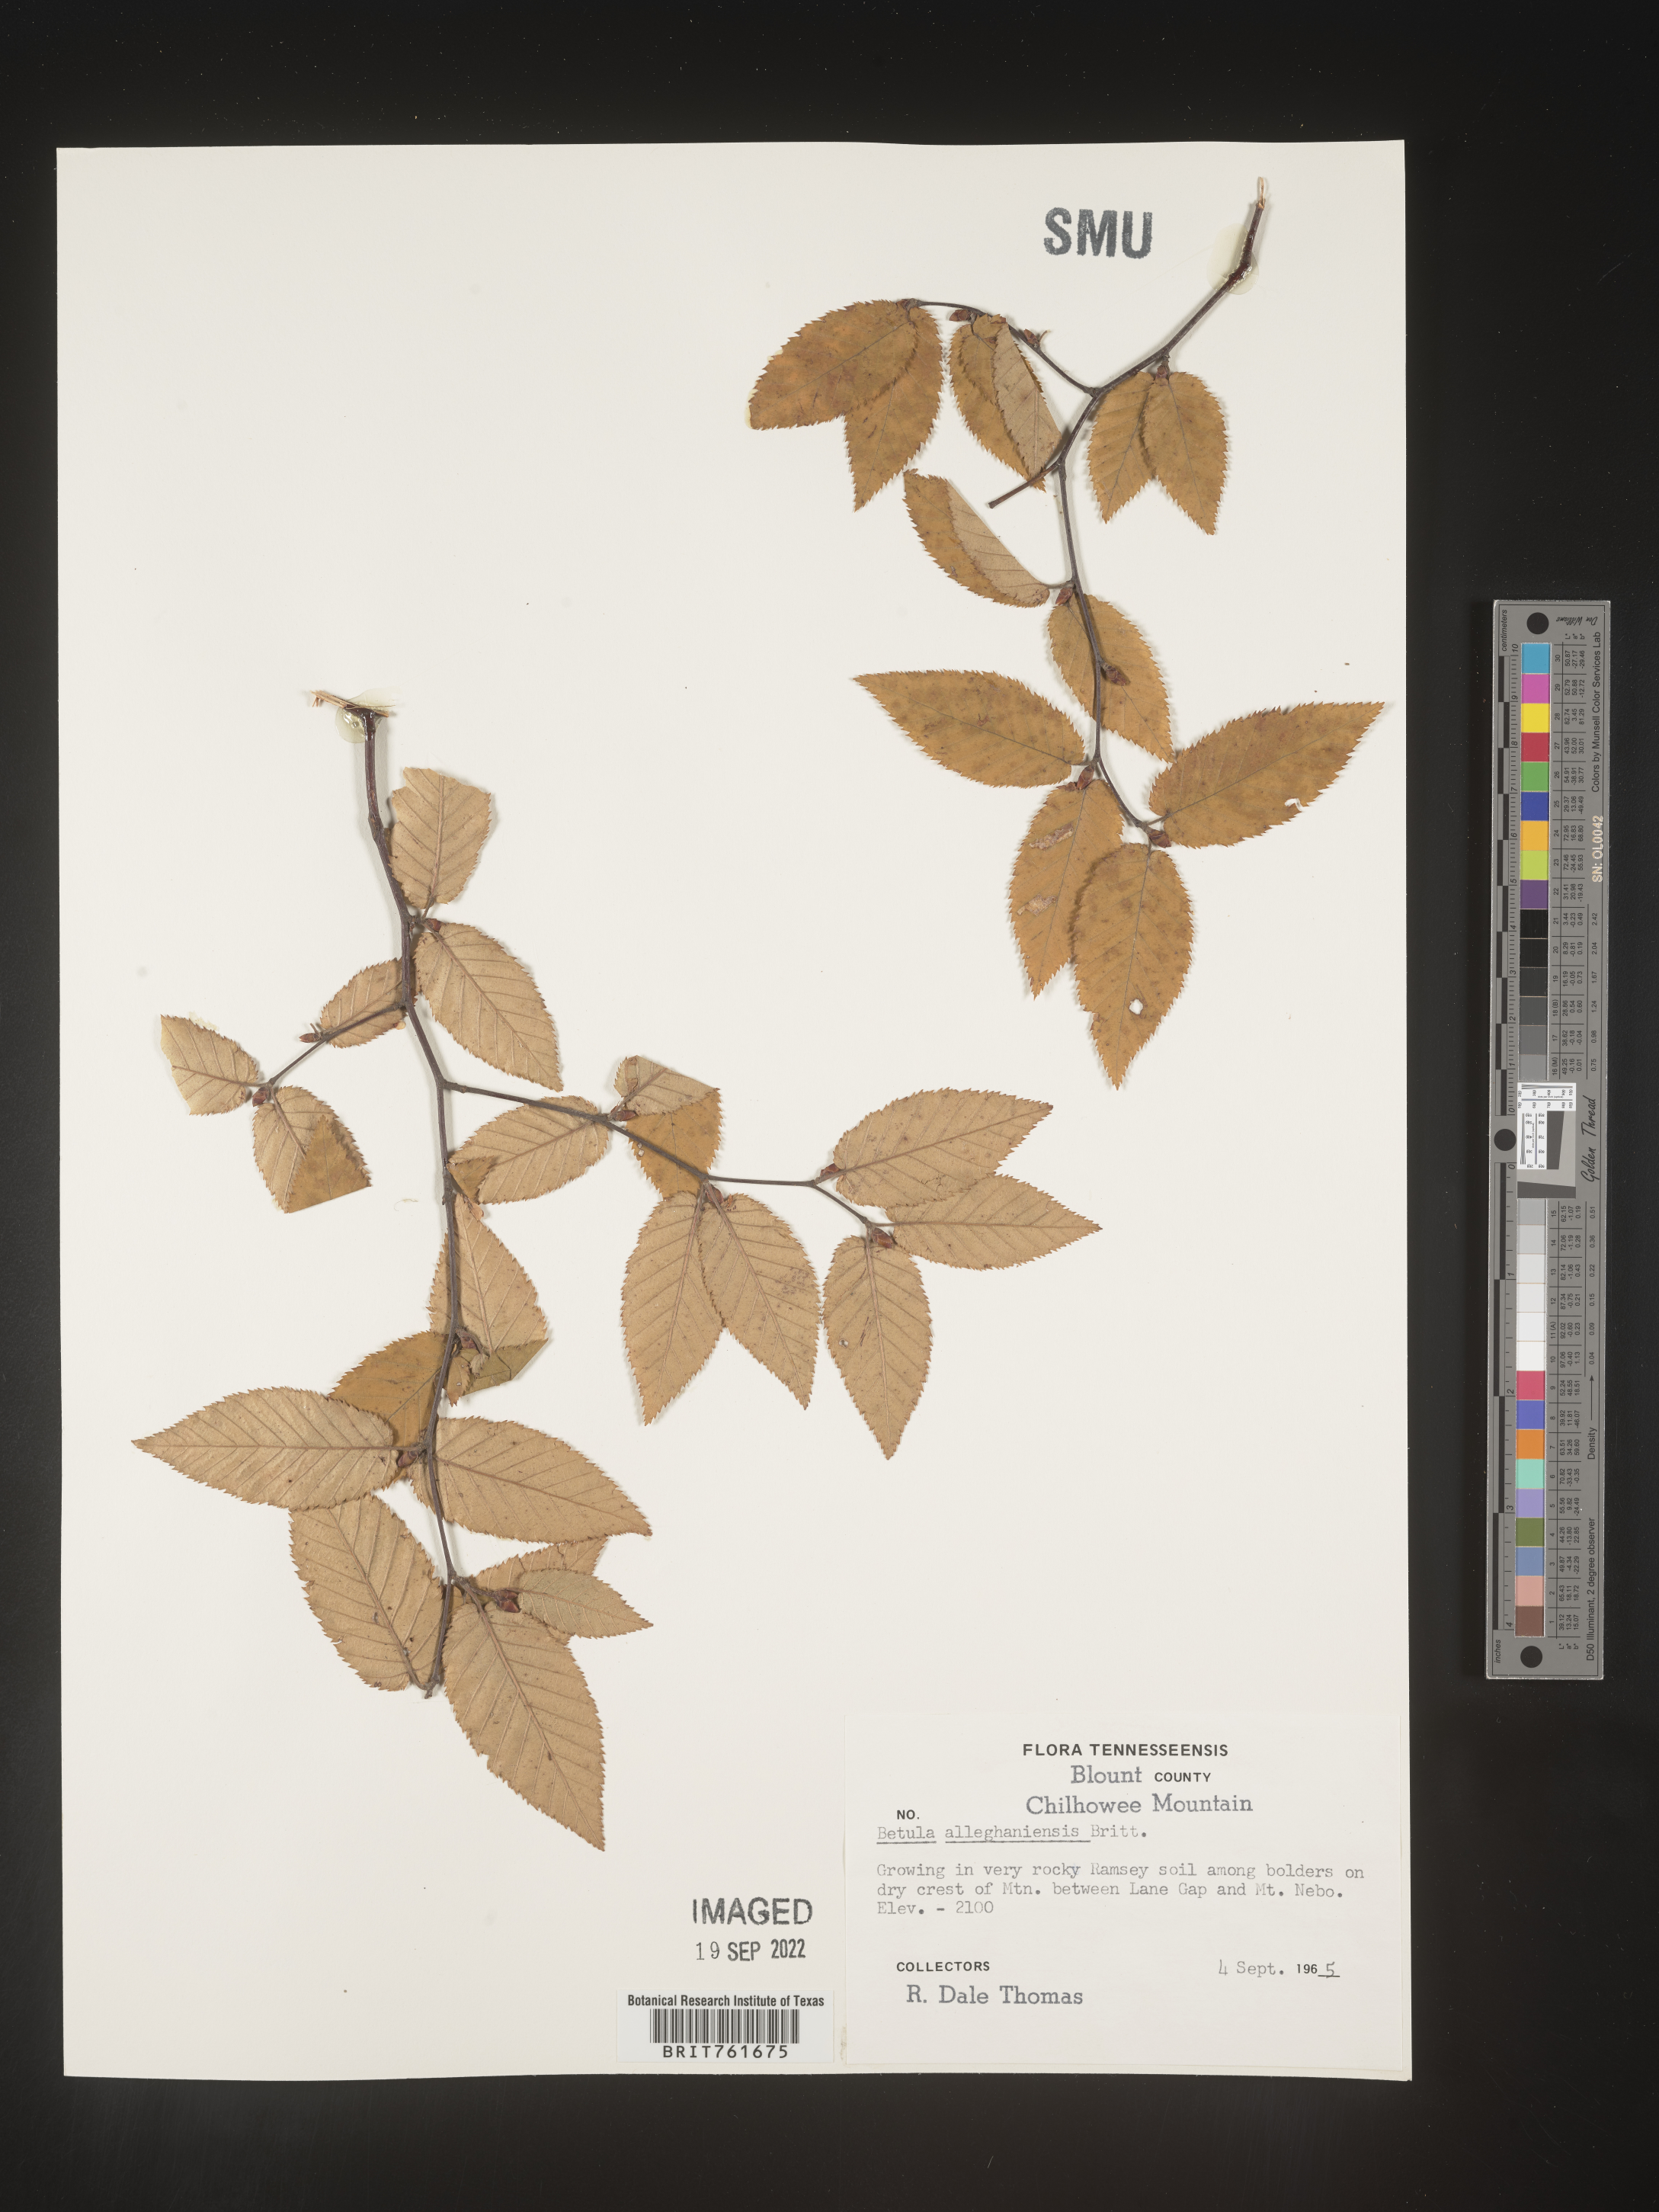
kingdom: Plantae
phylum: Tracheophyta
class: Magnoliopsida
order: Fagales
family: Betulaceae
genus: Betula
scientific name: Betula alleghaniensis
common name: Yellow birch
